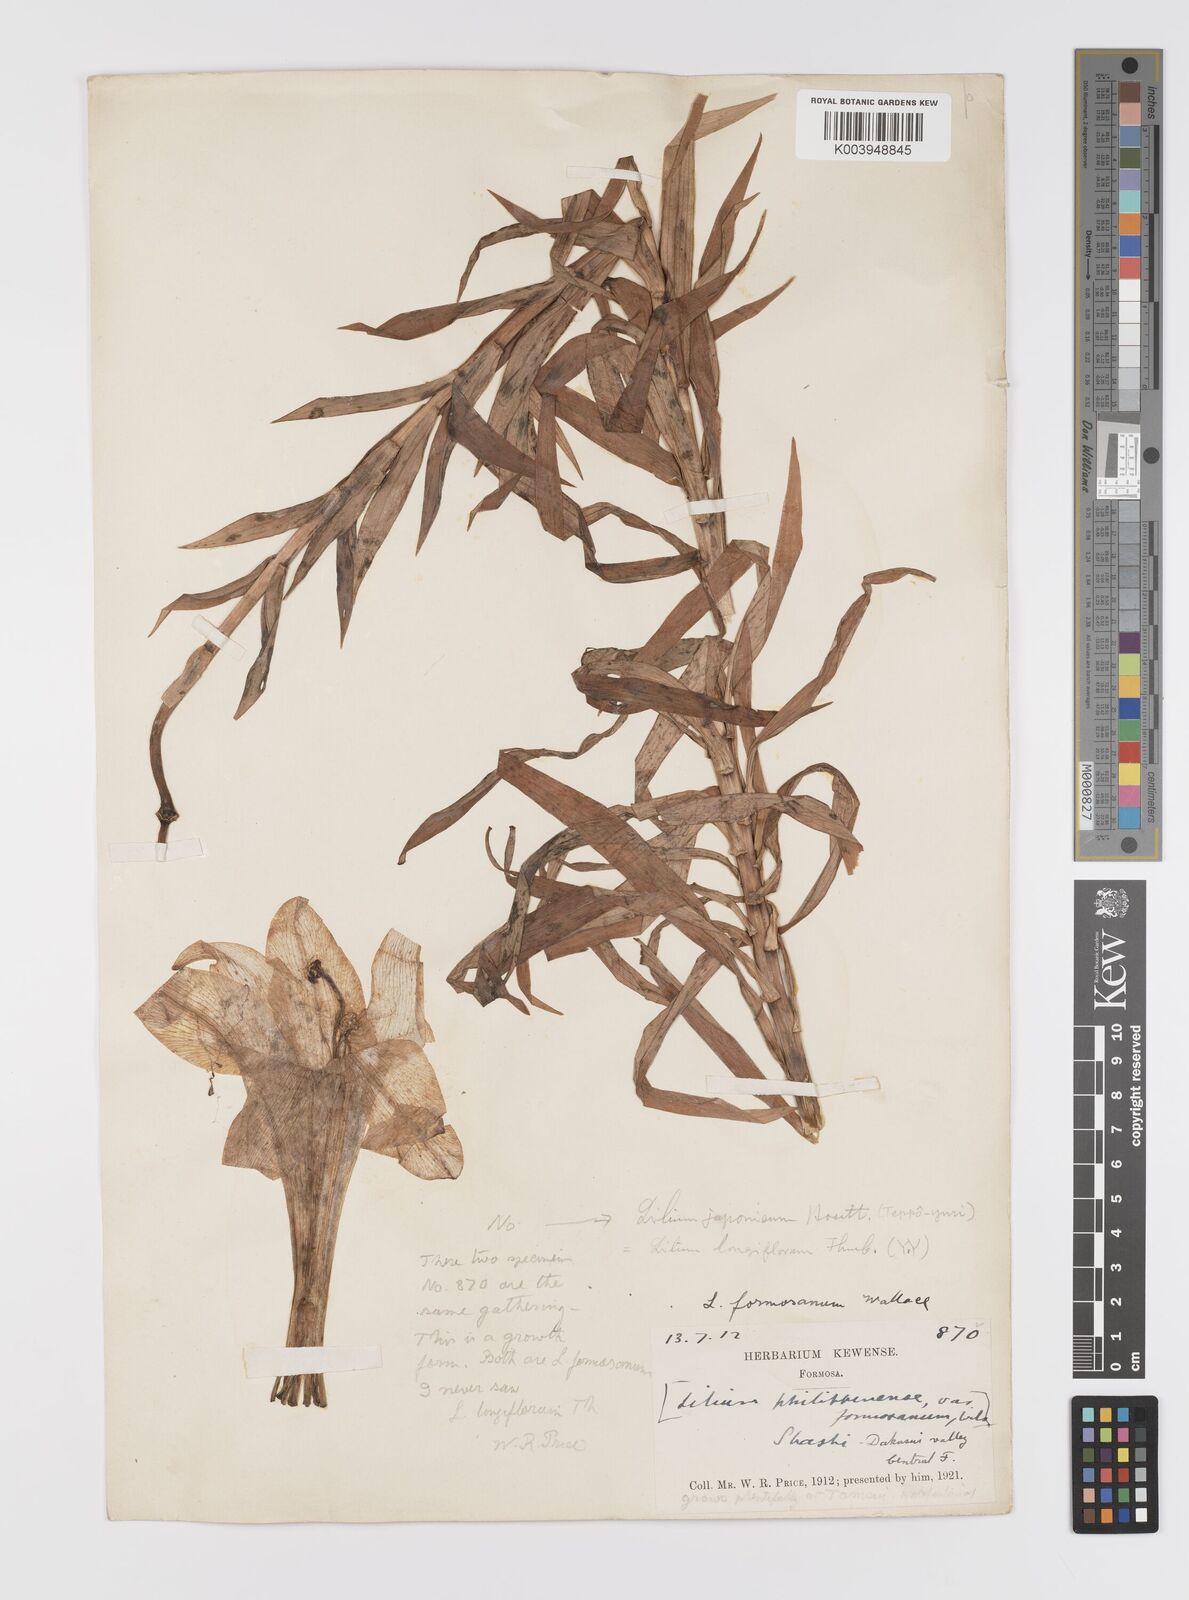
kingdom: Plantae
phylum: Tracheophyta
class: Liliopsida
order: Liliales
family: Liliaceae
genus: Lilium
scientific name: Lilium formosanum
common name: Formosa lily
